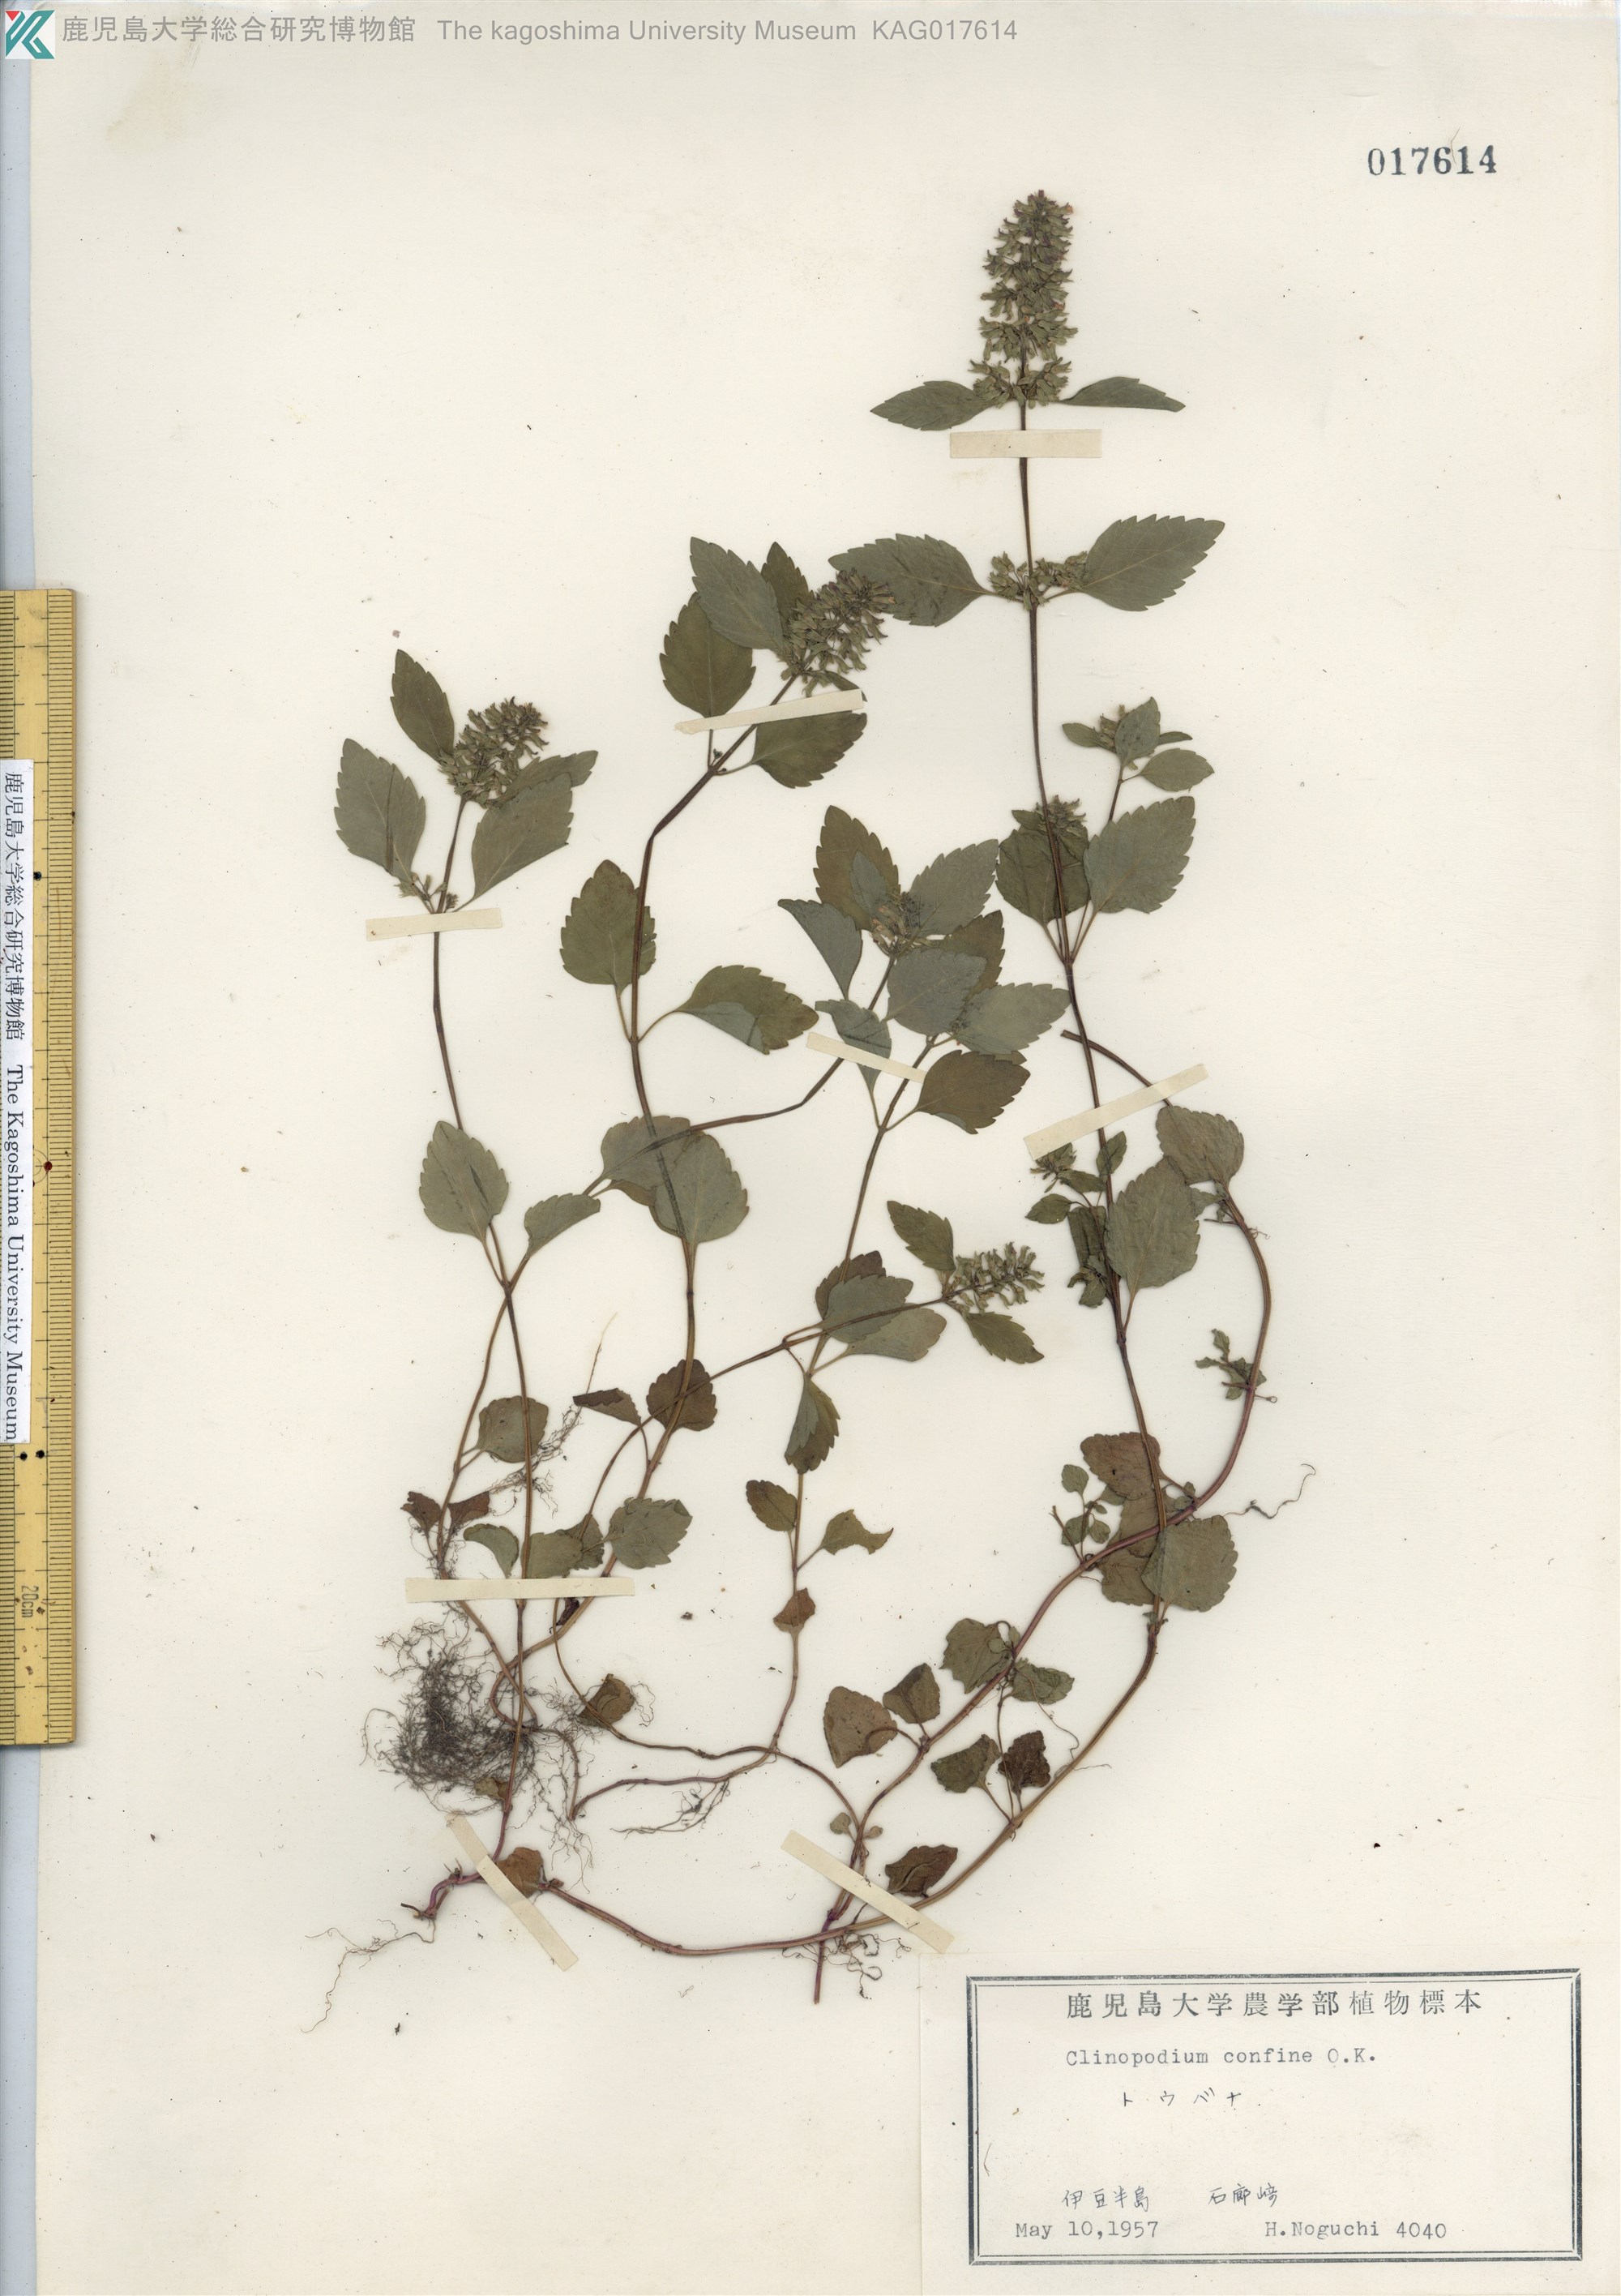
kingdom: Plantae
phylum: Tracheophyta
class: Magnoliopsida
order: Lamiales
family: Lamiaceae
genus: Clinopodium
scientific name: Clinopodium gracile
